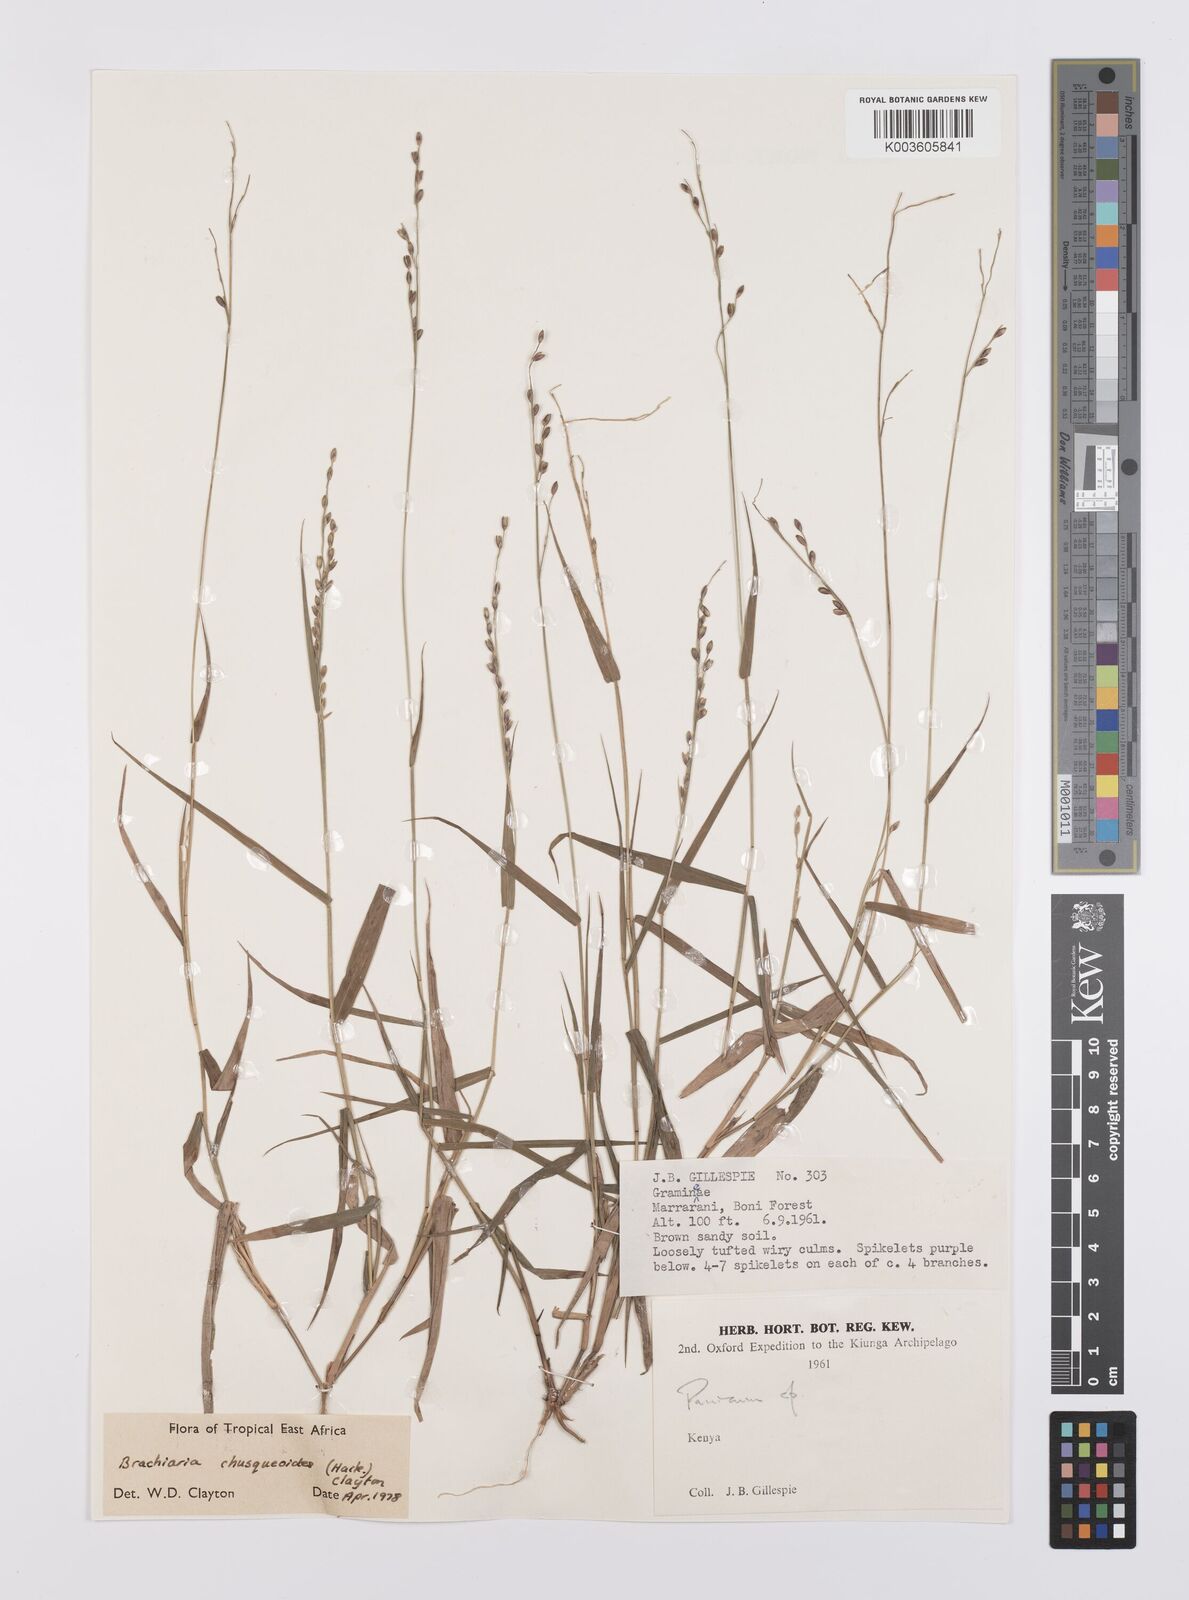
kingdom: Plantae
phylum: Tracheophyta
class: Liliopsida
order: Poales
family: Poaceae
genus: Urochloa
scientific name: Urochloa chusqueoides
